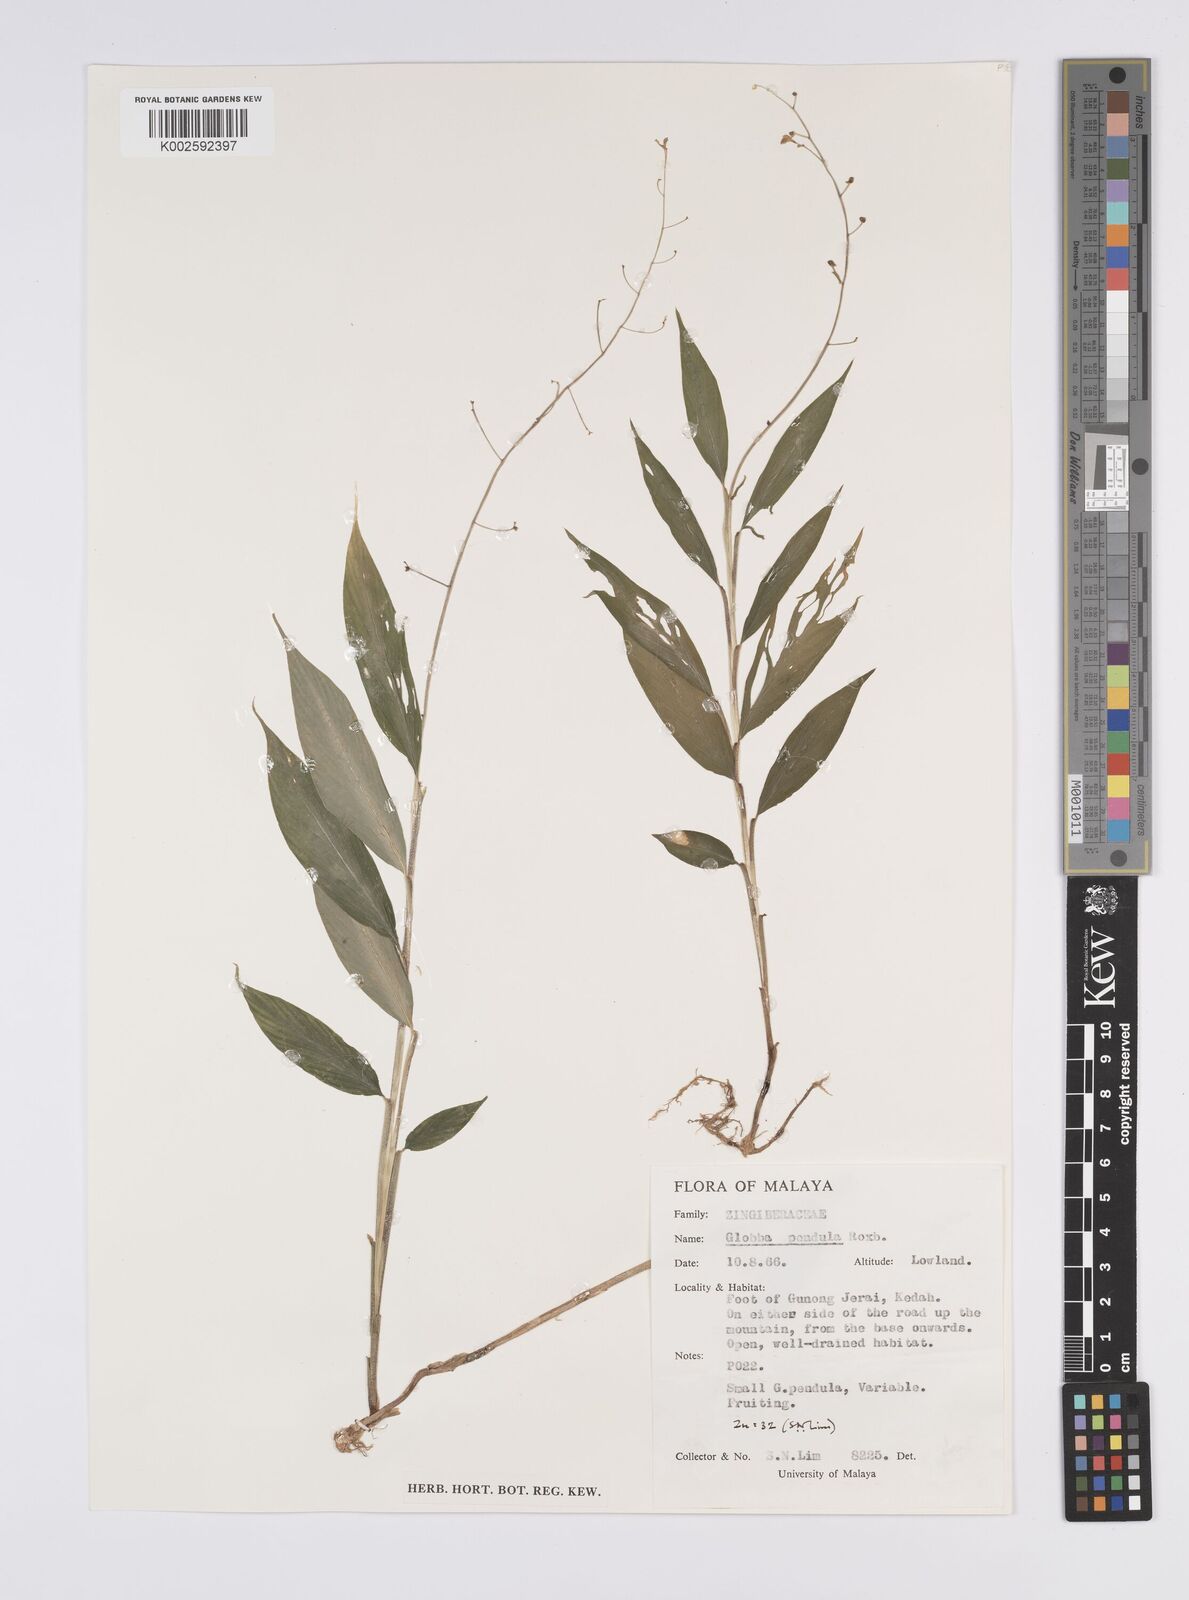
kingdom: Plantae
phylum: Tracheophyta
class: Liliopsida
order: Zingiberales
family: Zingiberaceae
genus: Globba
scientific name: Globba pendula
